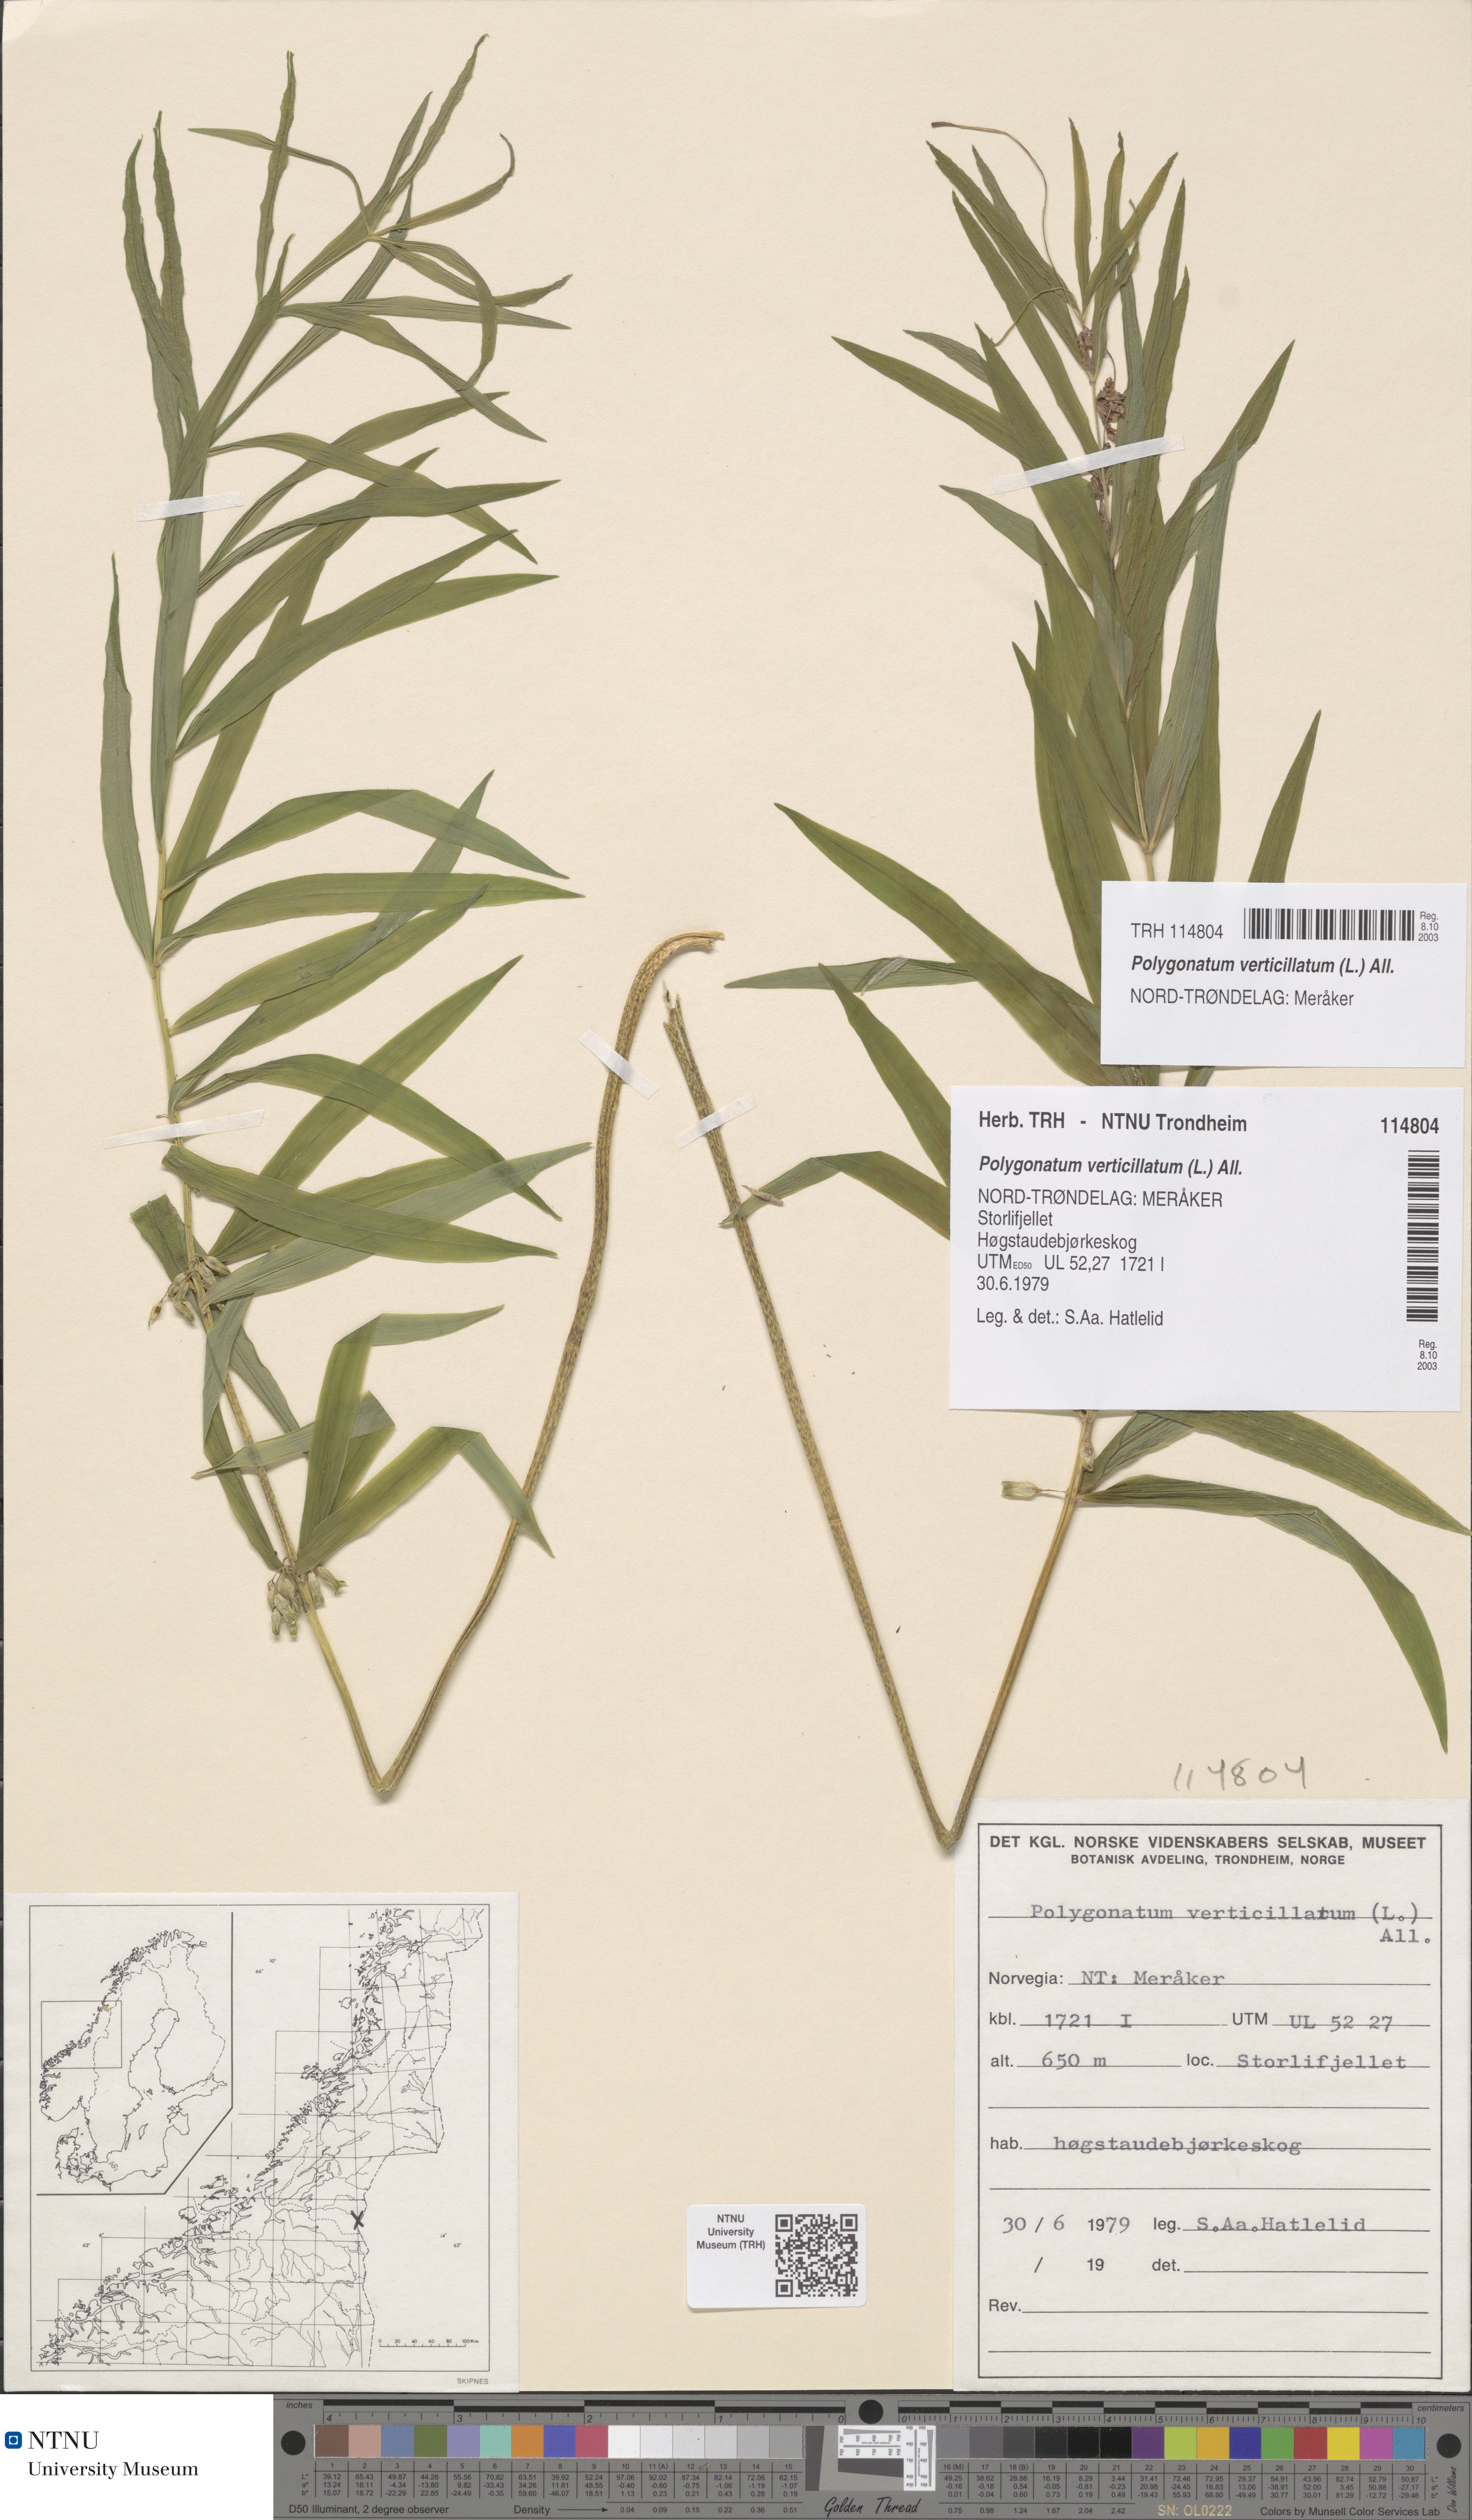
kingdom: Plantae
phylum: Tracheophyta
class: Liliopsida
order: Asparagales
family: Asparagaceae
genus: Polygonatum
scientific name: Polygonatum verticillatum
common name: Whorled solomon's-seal
